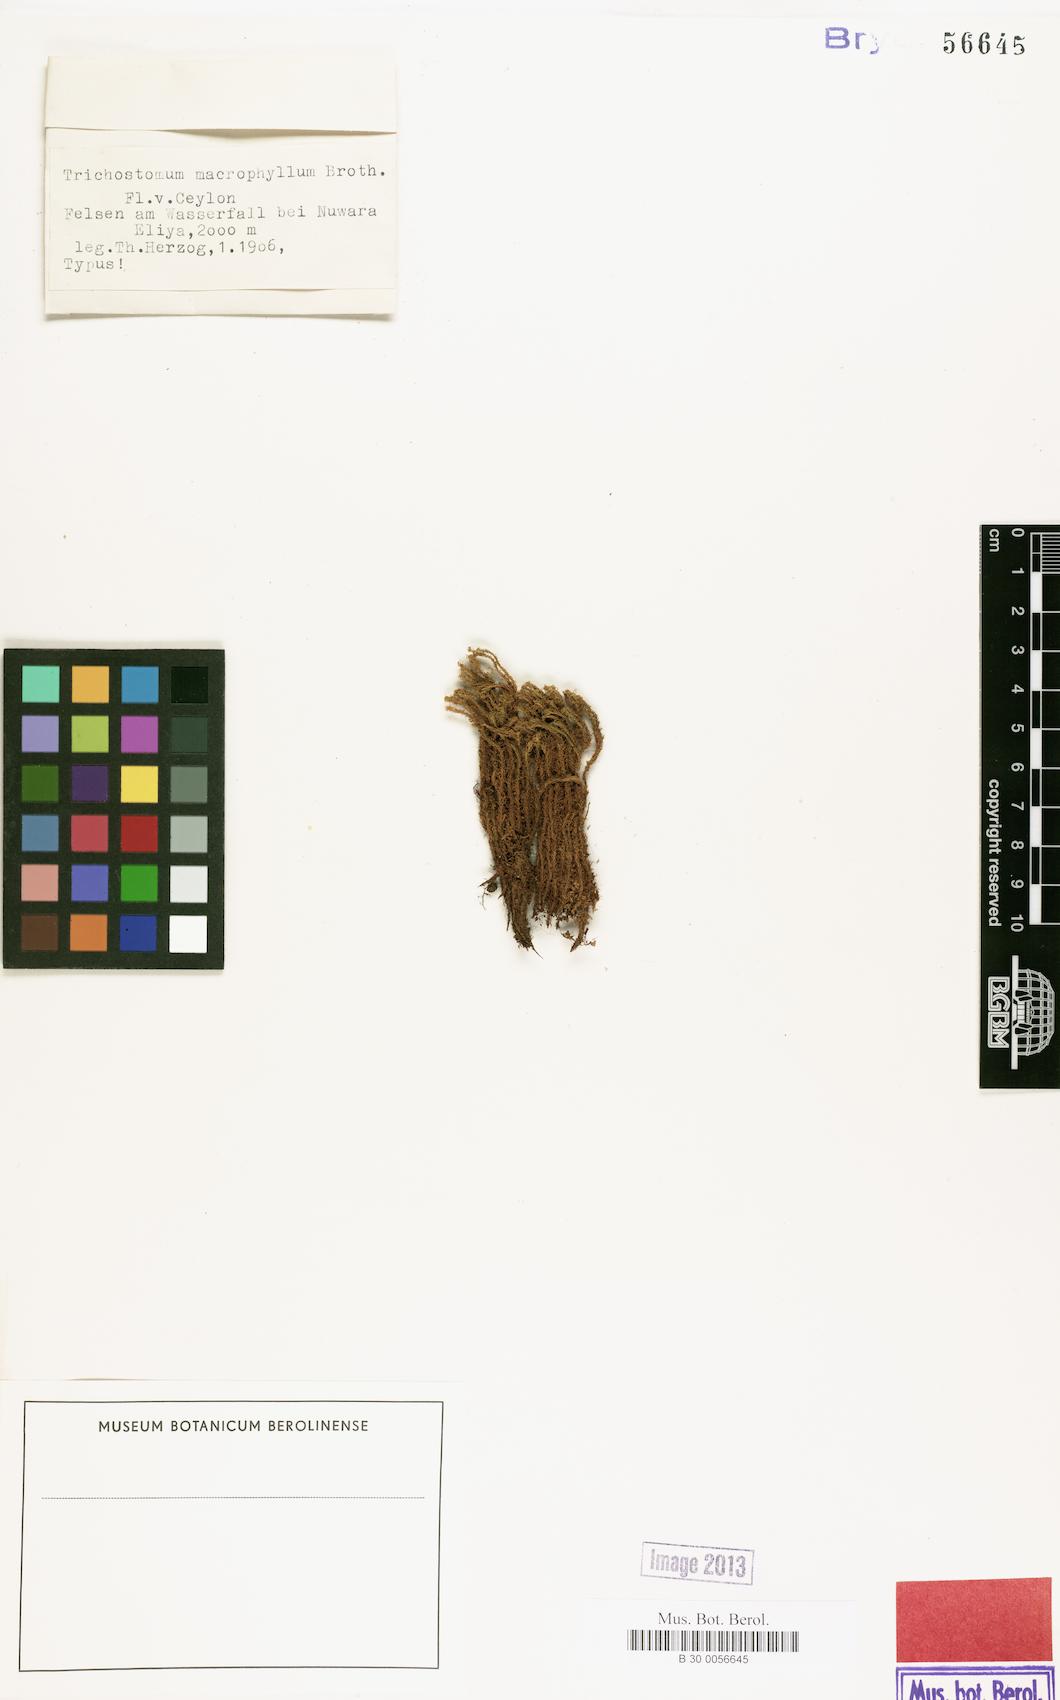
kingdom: Plantae
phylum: Bryophyta
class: Bryopsida
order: Pottiales
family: Pottiaceae
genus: Trichostomum
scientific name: Trichostomum
